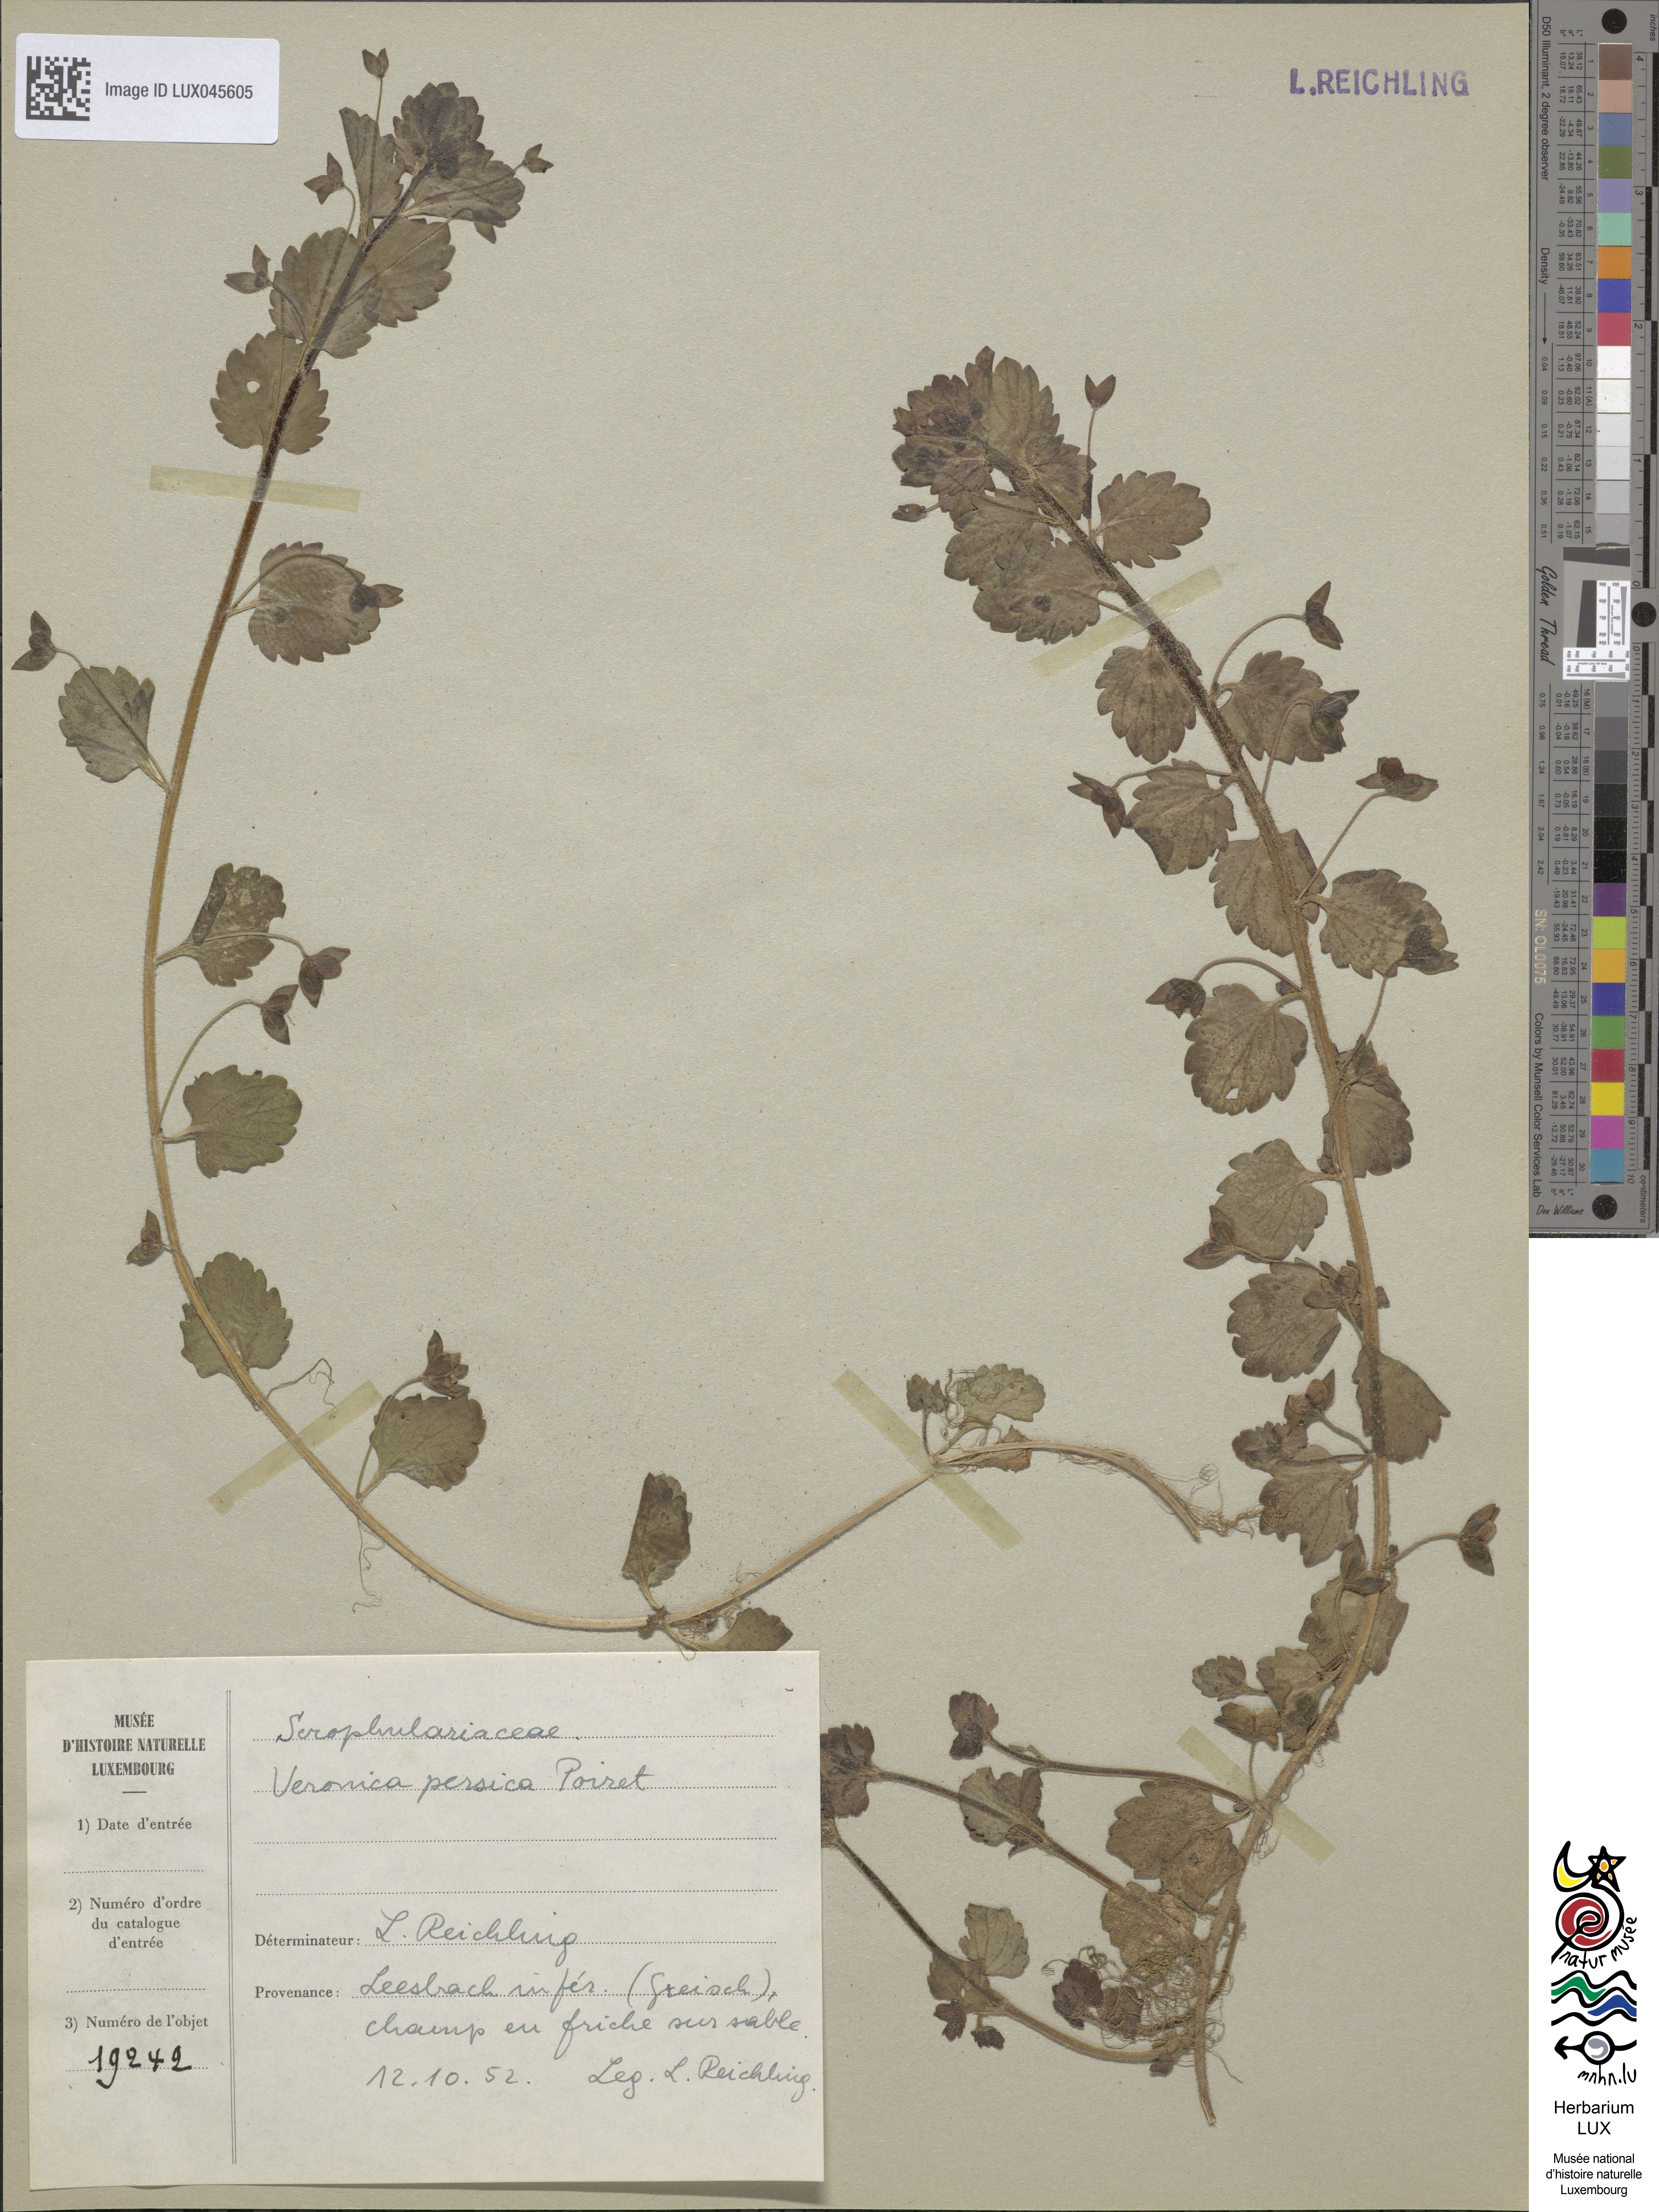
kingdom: Plantae
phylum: Tracheophyta
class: Magnoliopsida
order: Lamiales
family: Plantaginaceae
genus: Veronica
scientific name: Veronica persica
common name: Common field-speedwell
